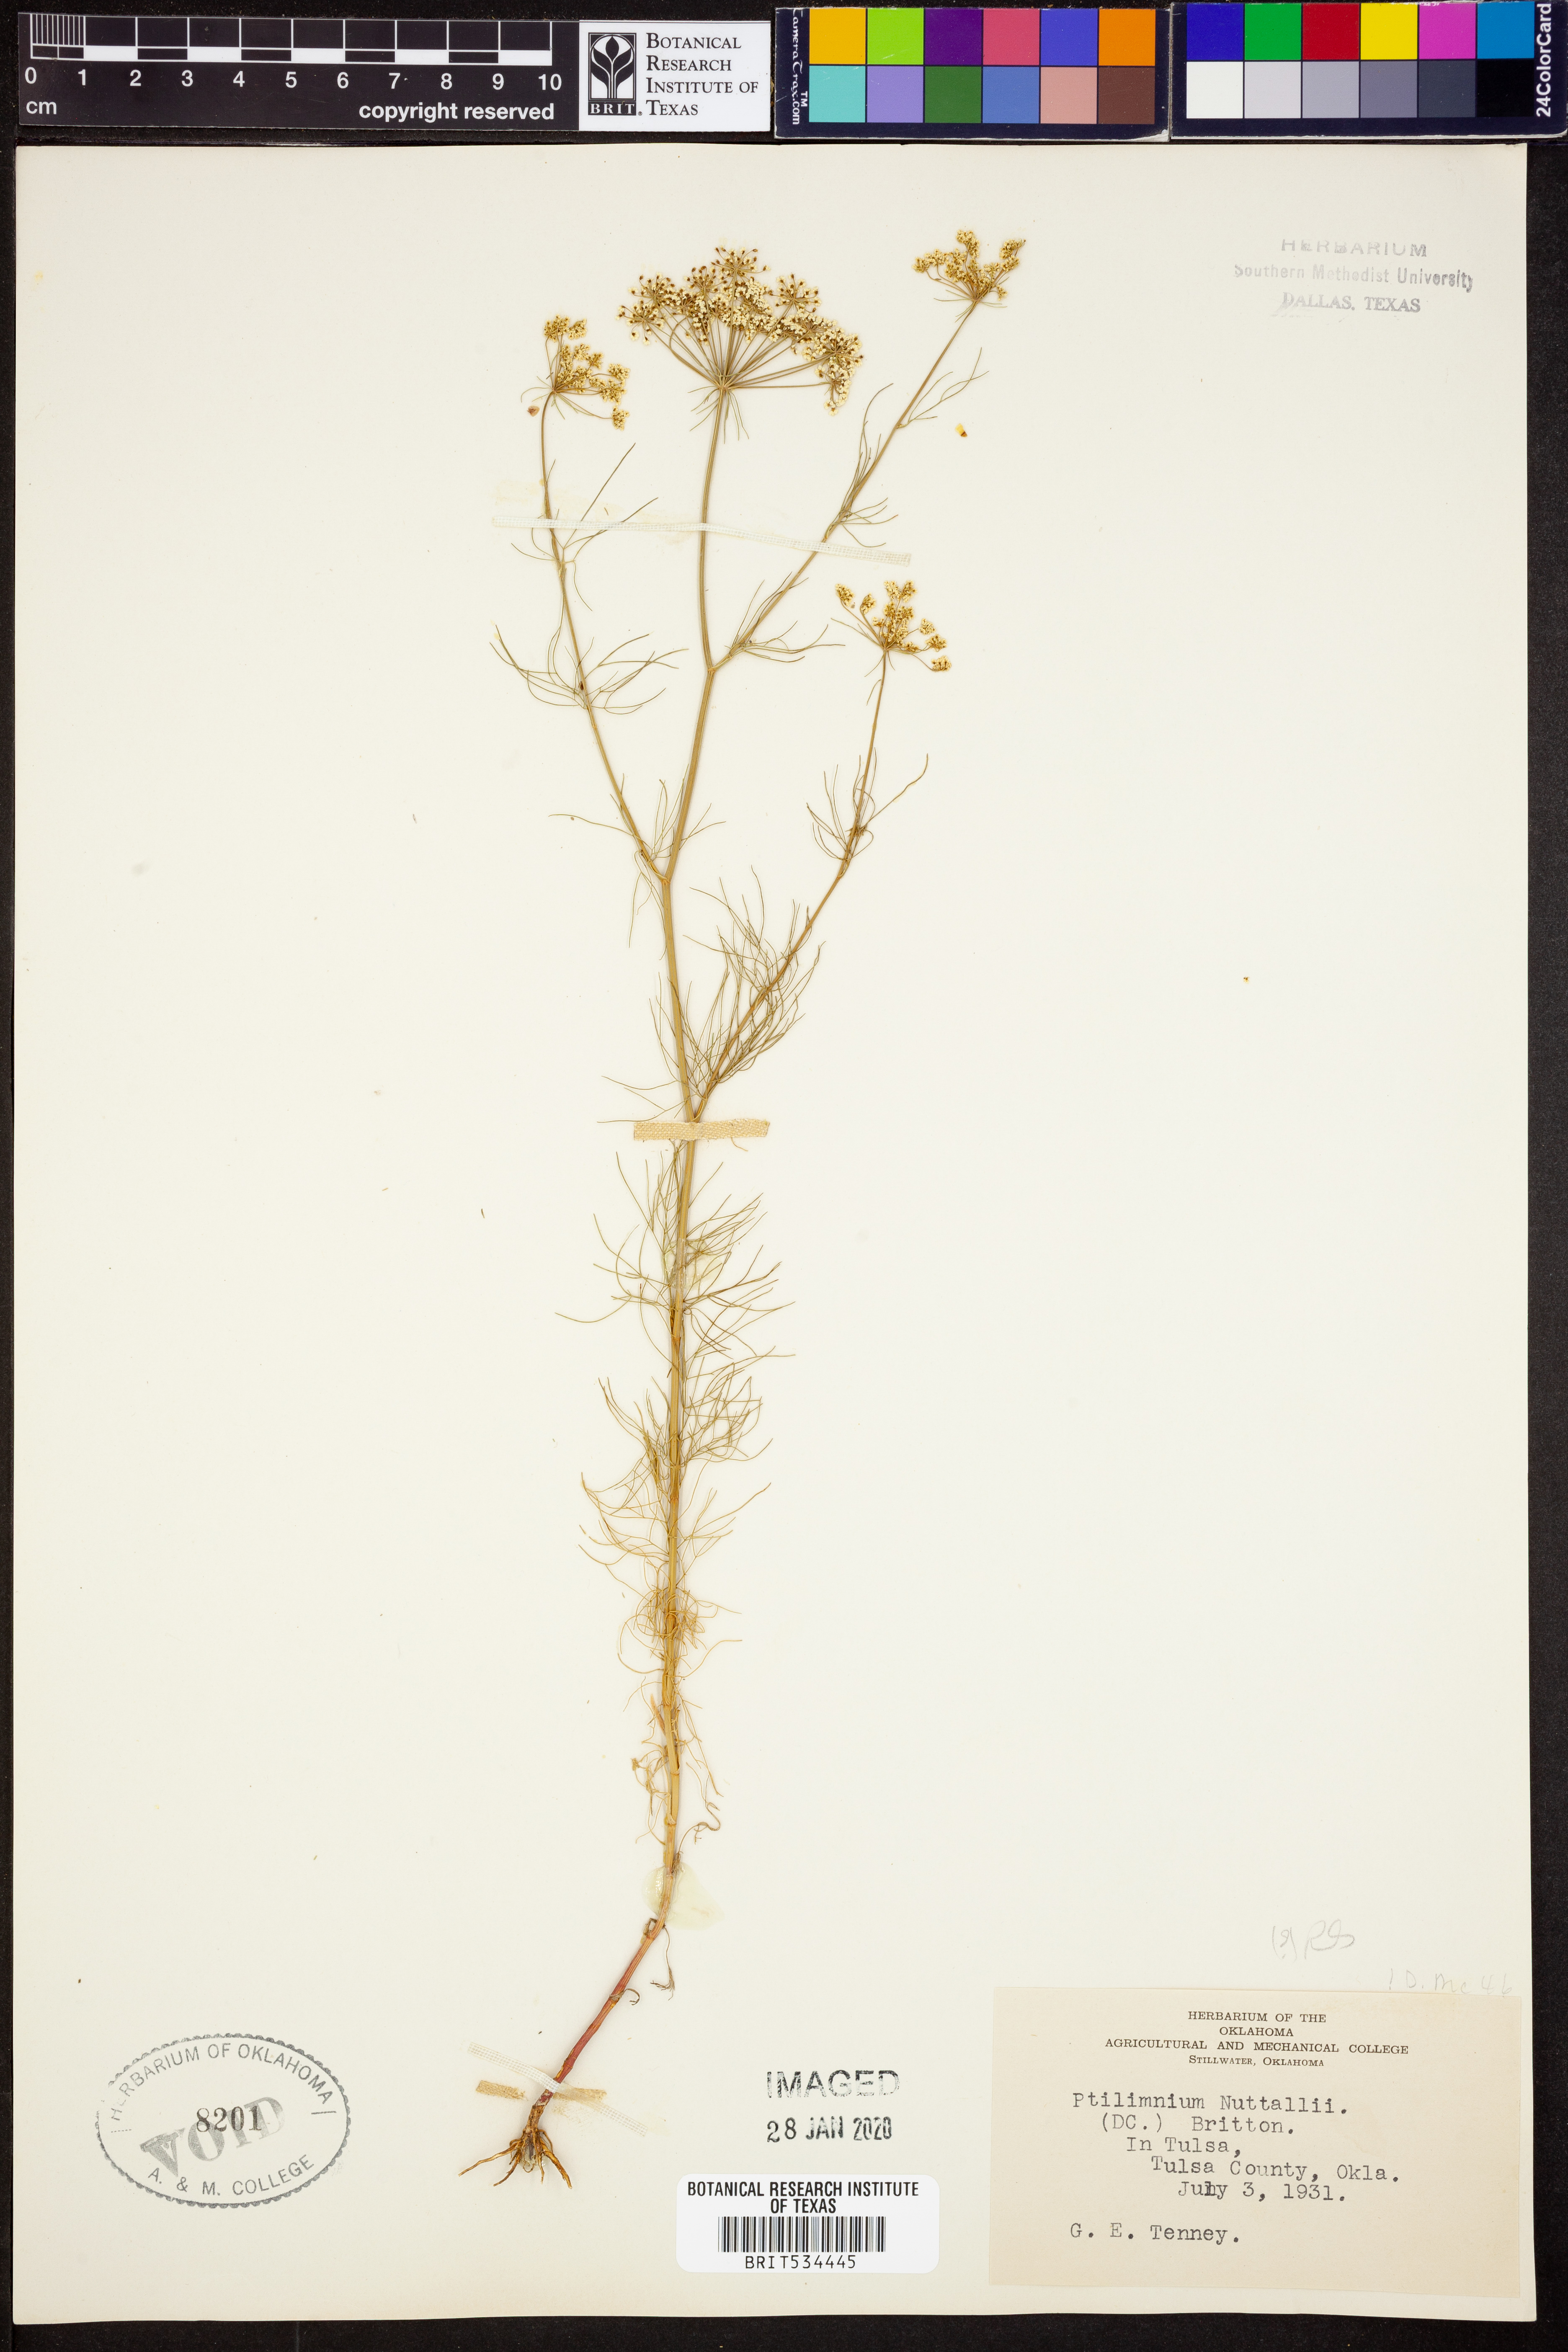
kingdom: Plantae
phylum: Tracheophyta
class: Magnoliopsida
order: Apiales
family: Apiaceae
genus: Ptilimnium
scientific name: Ptilimnium nuttallii
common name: Ozark bishop's-weed
